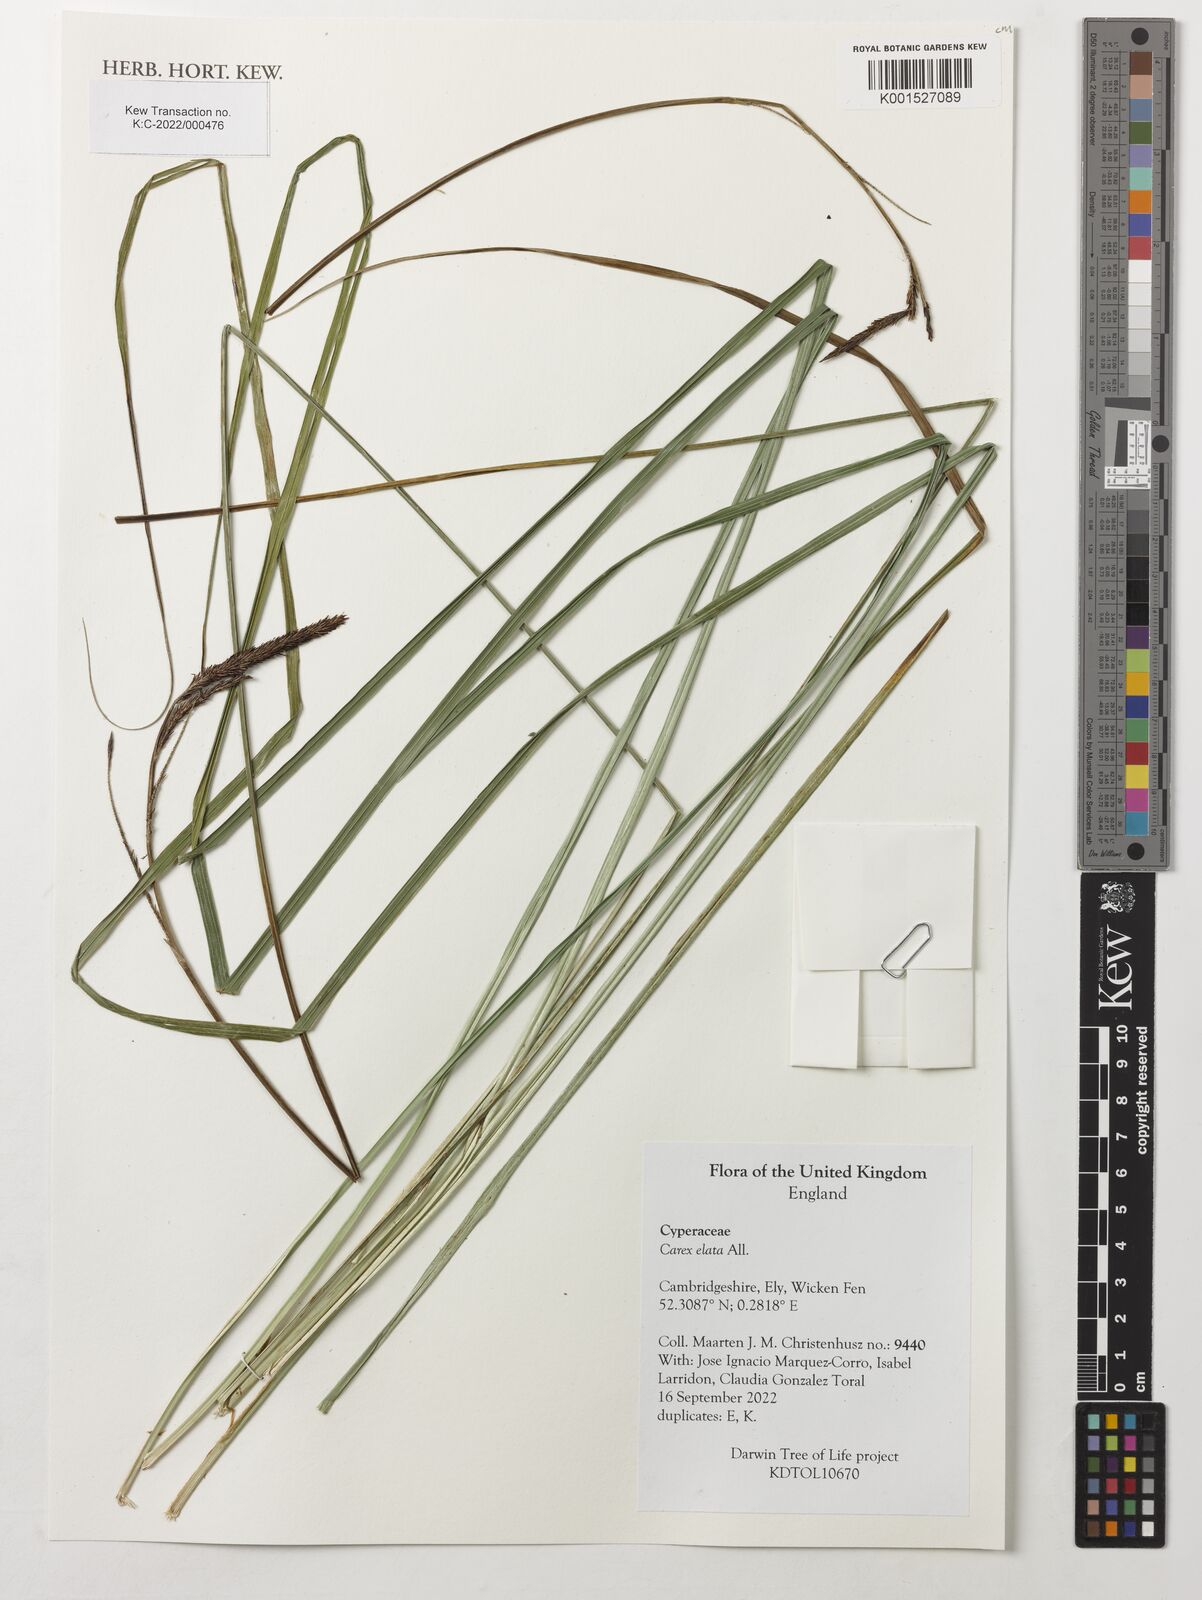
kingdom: Plantae
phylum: Tracheophyta
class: Liliopsida
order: Poales
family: Cyperaceae
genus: Carex
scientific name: Carex elata
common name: Tufted sedge
